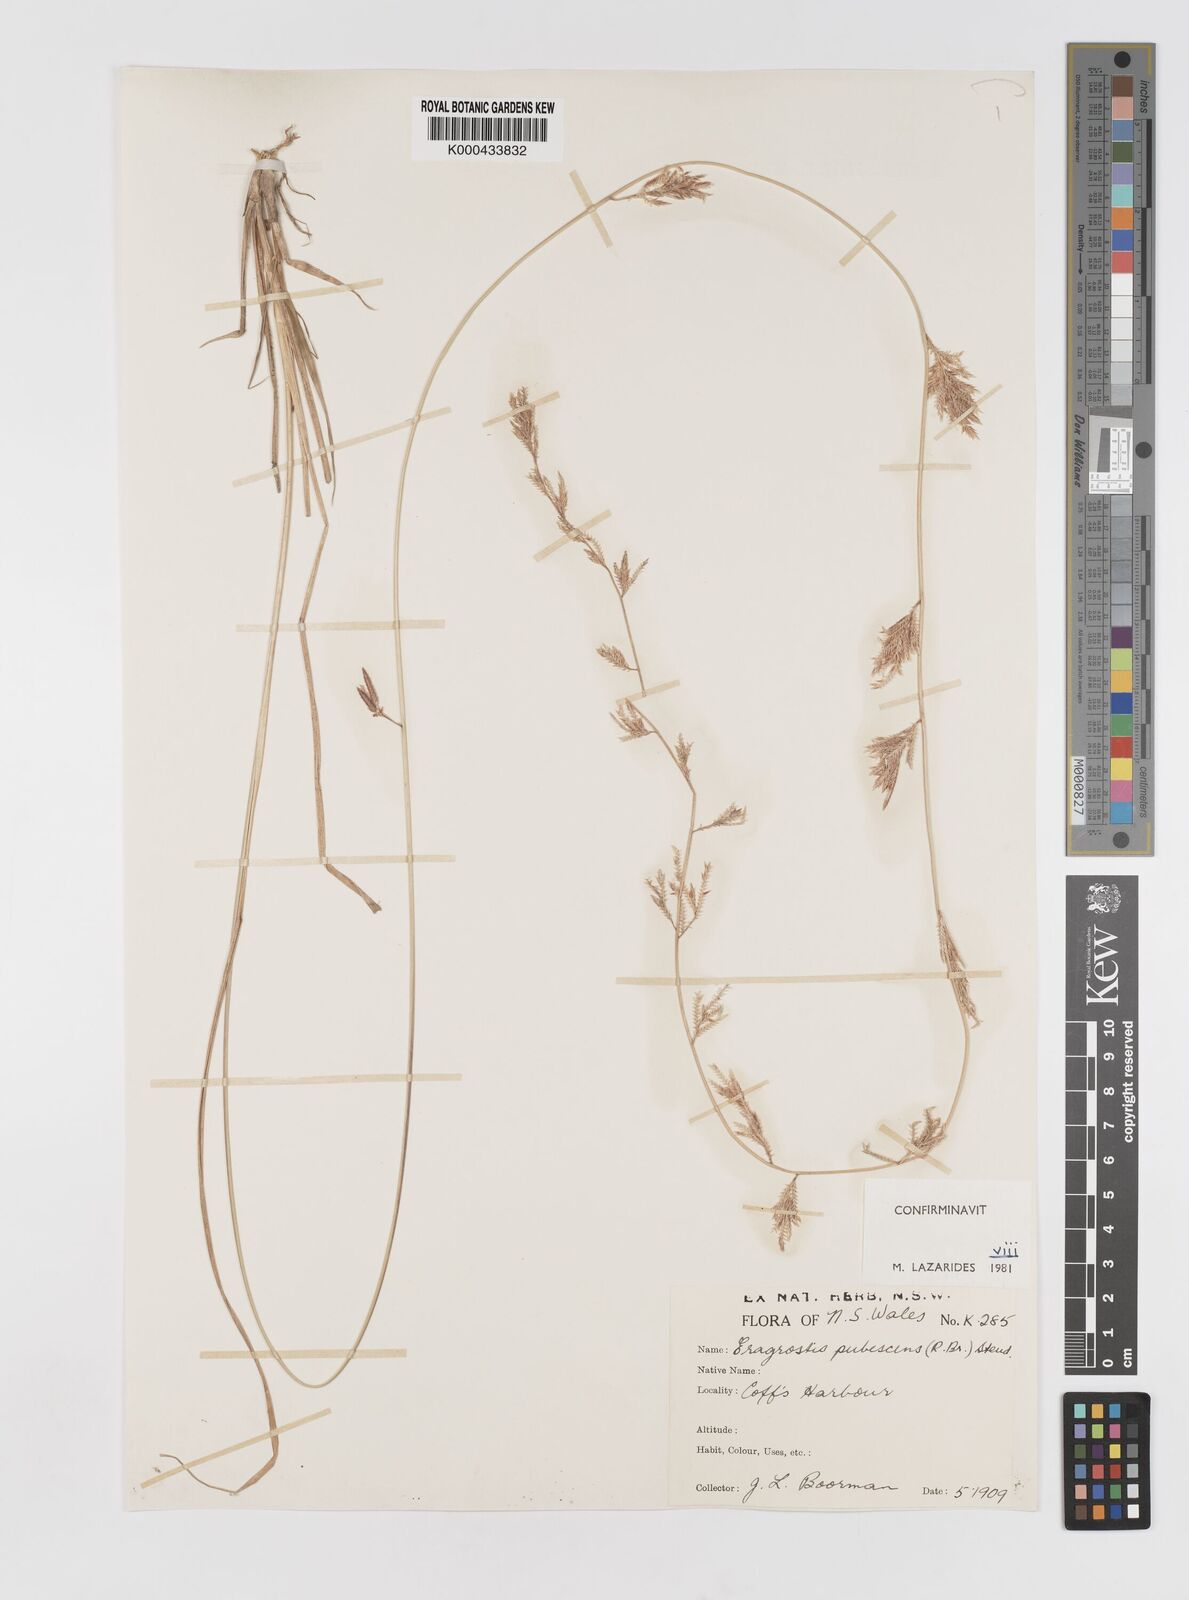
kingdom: Plantae
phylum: Tracheophyta
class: Liliopsida
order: Poales
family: Poaceae
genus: Eragrostis
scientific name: Eragrostis pubescens
